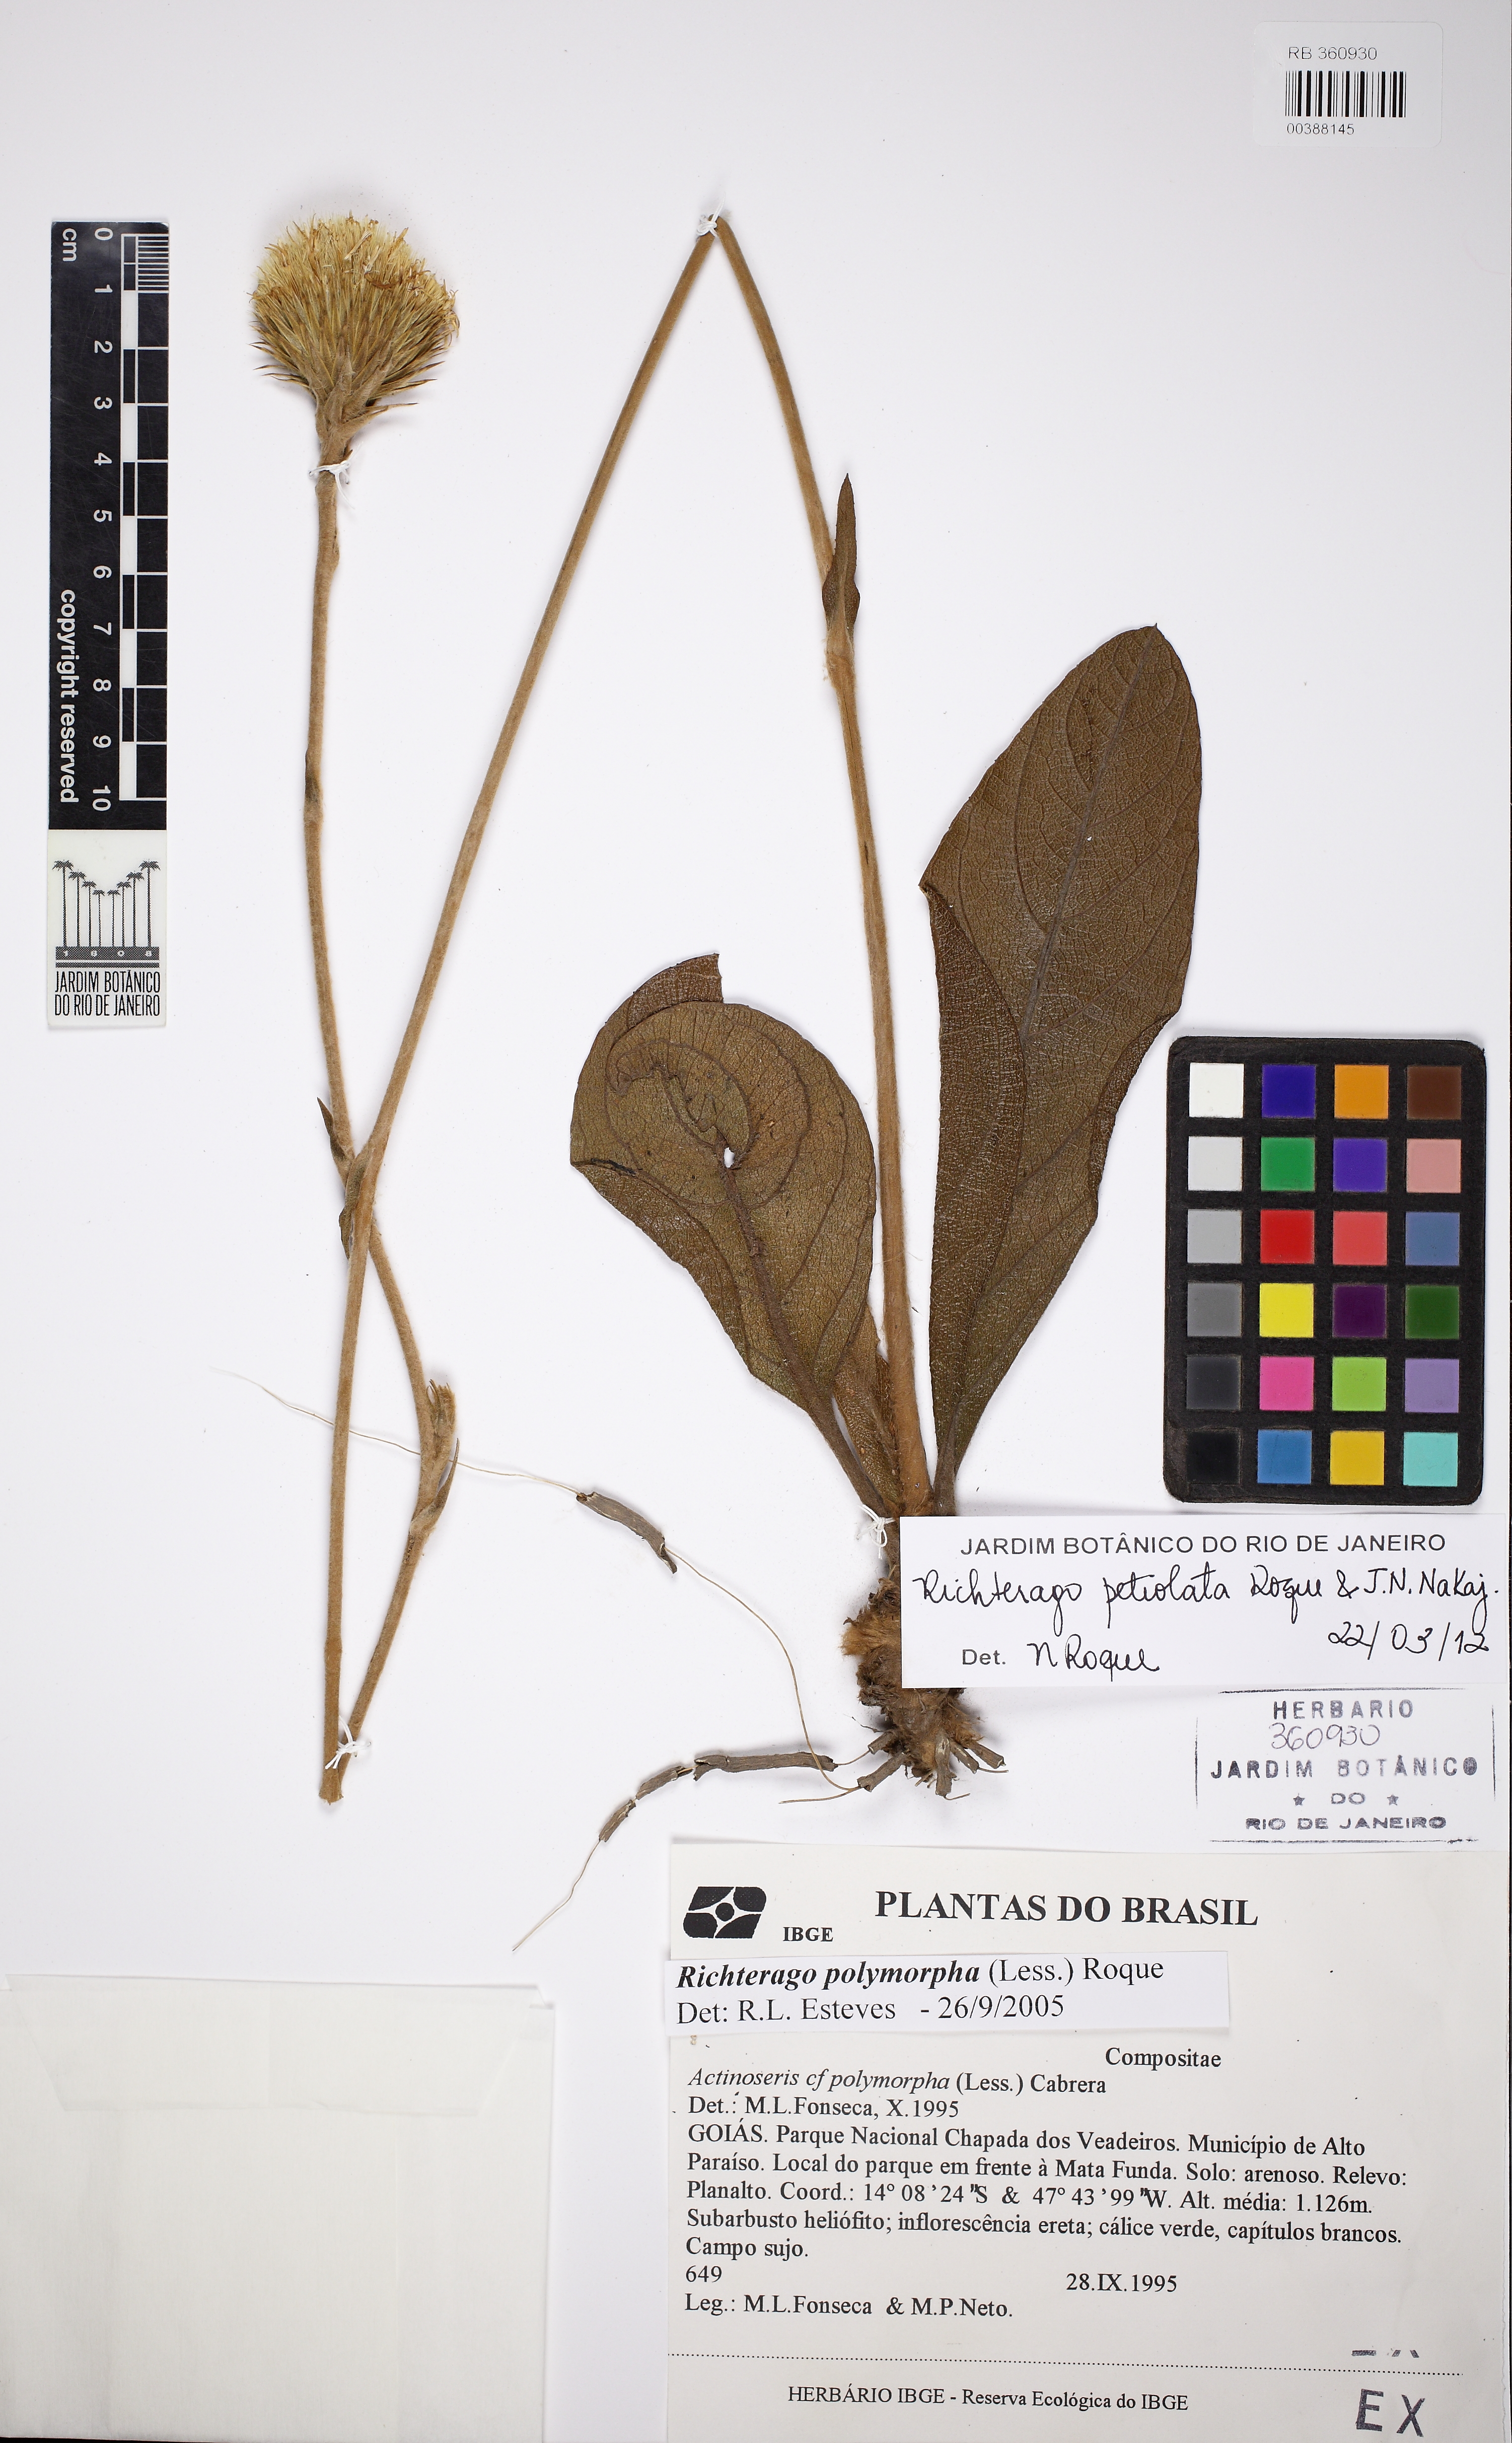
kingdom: Plantae
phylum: Tracheophyta
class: Magnoliopsida
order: Asterales
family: Asteraceae
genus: Richterago
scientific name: Richterago petiolata
